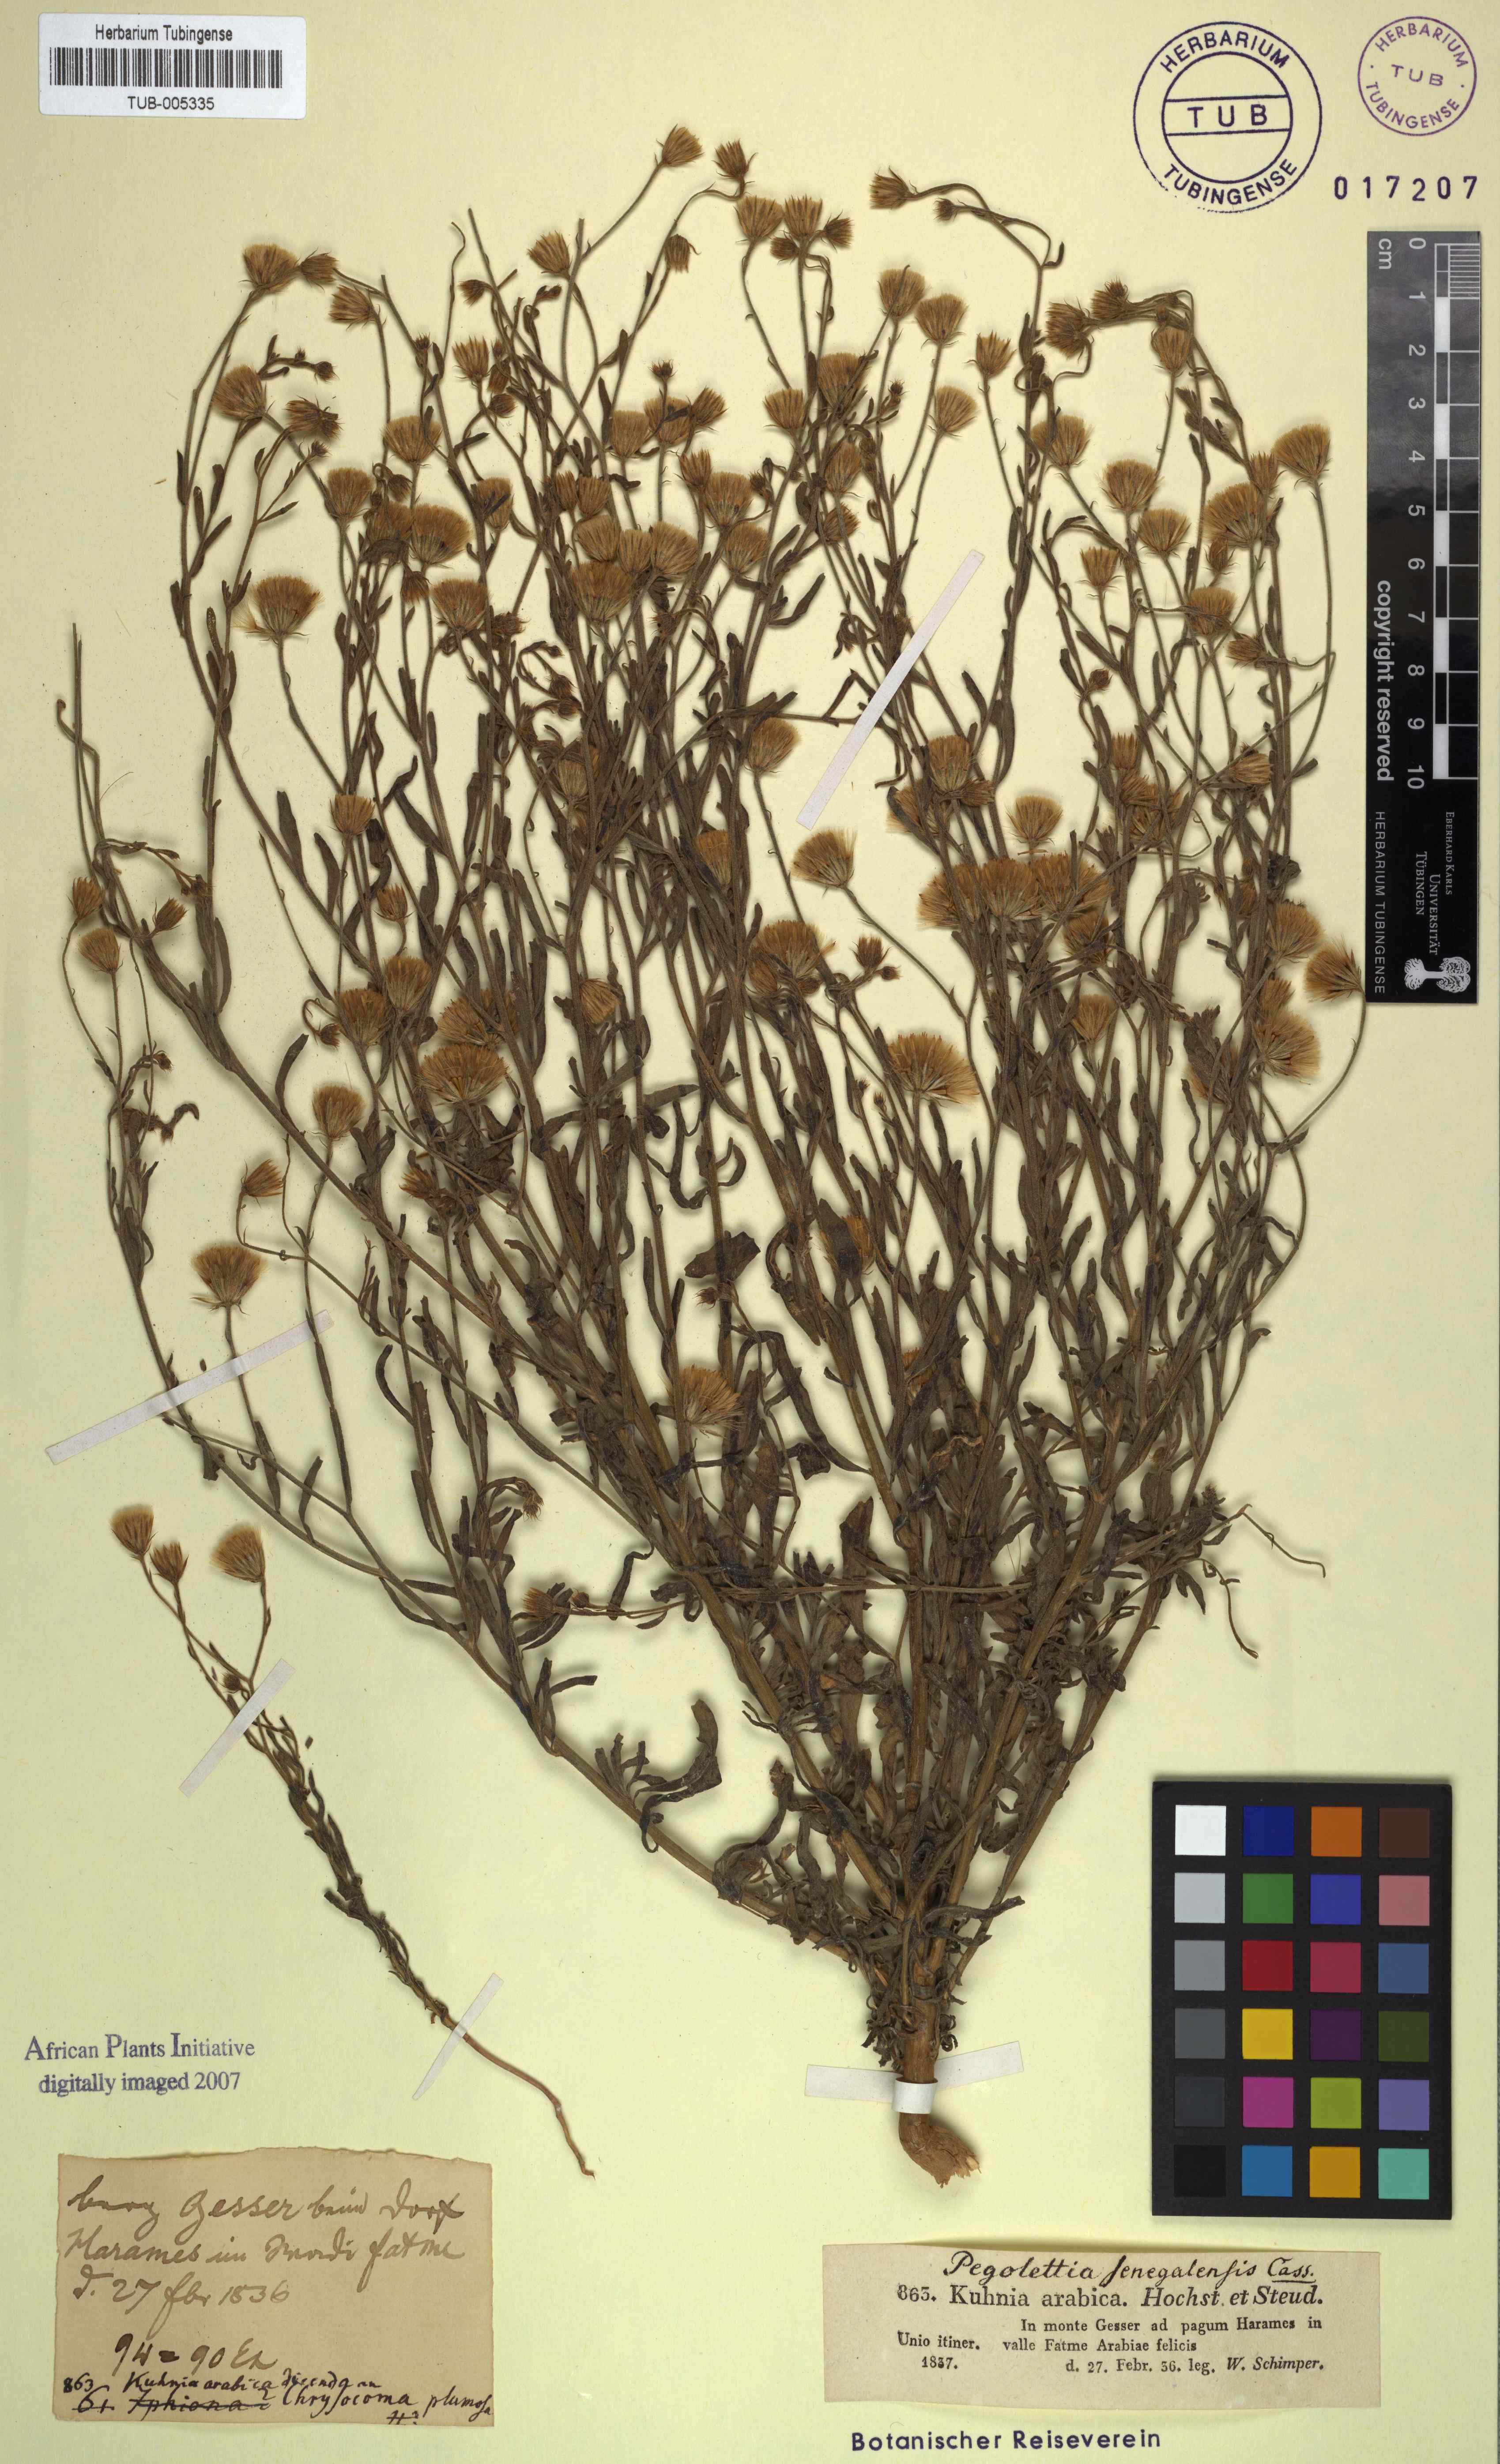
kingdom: Plantae
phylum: Tracheophyta
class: Magnoliopsida
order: Asterales
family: Asteraceae
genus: Pegolettia
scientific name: Pegolettia senegalensis
